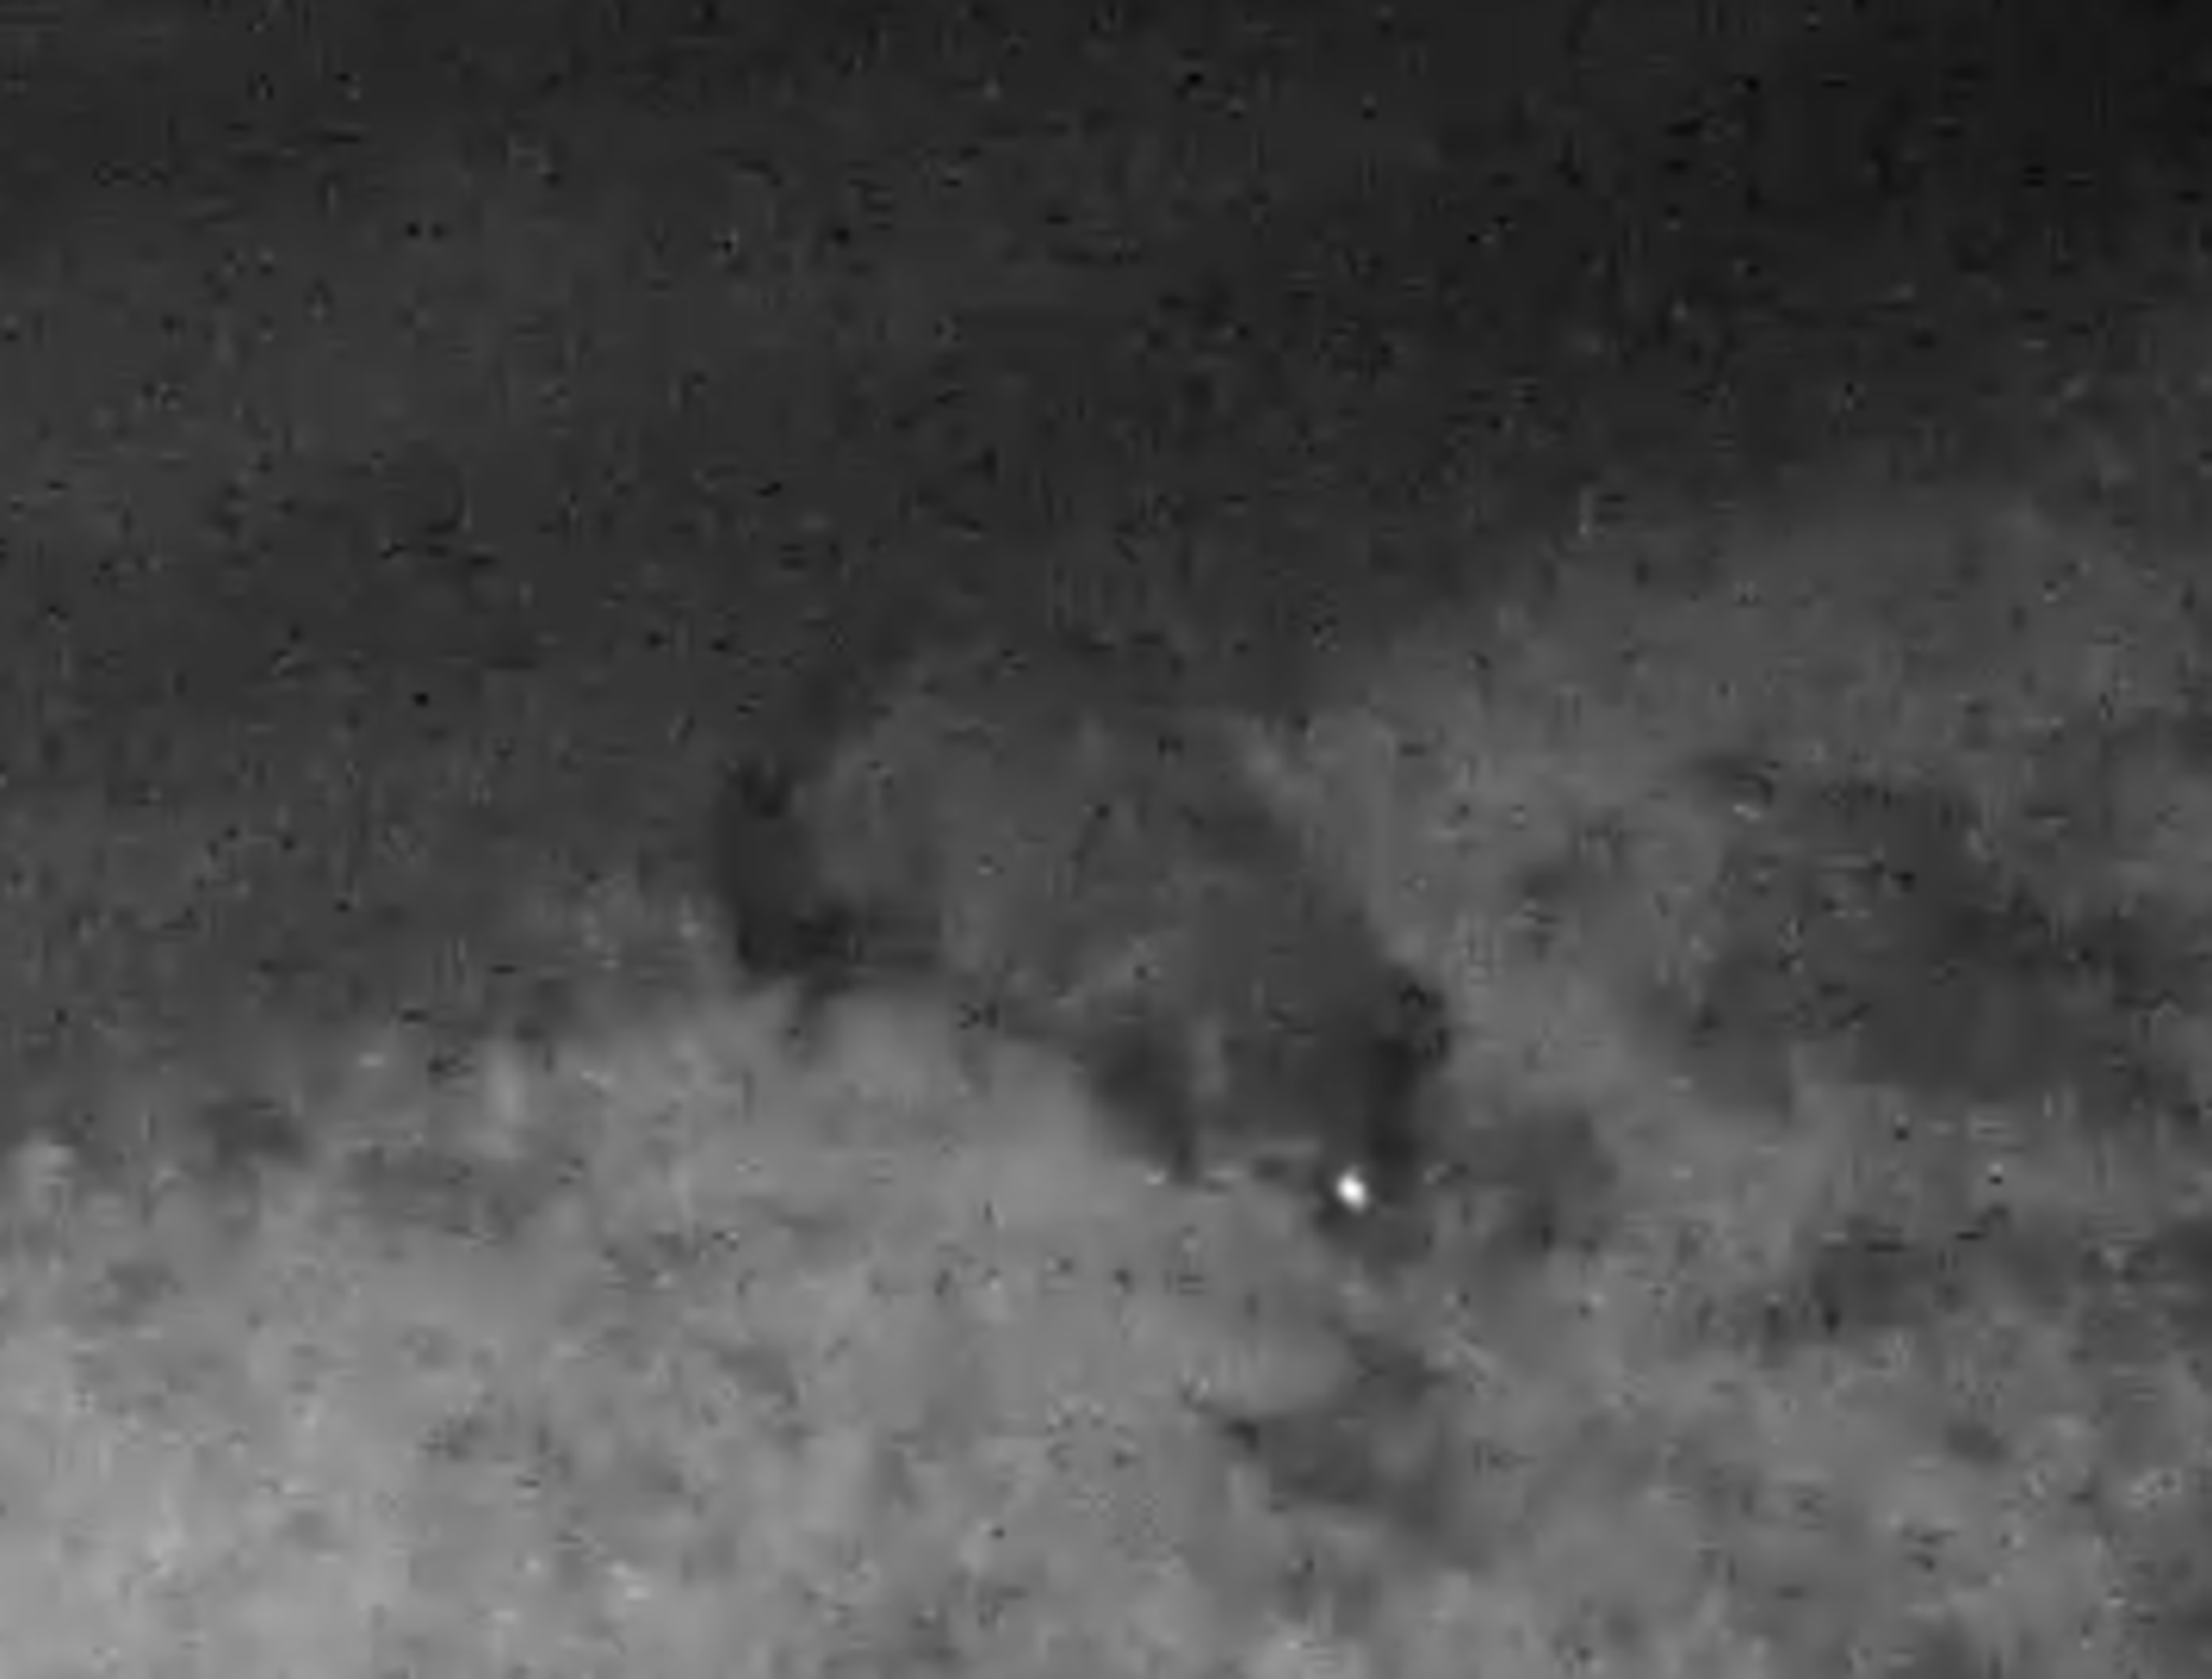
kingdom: Animalia
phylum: Chordata
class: Mammalia
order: Carnivora
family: Canidae
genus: Nyctereutes
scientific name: Nyctereutes procyonoides
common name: Mårhund
